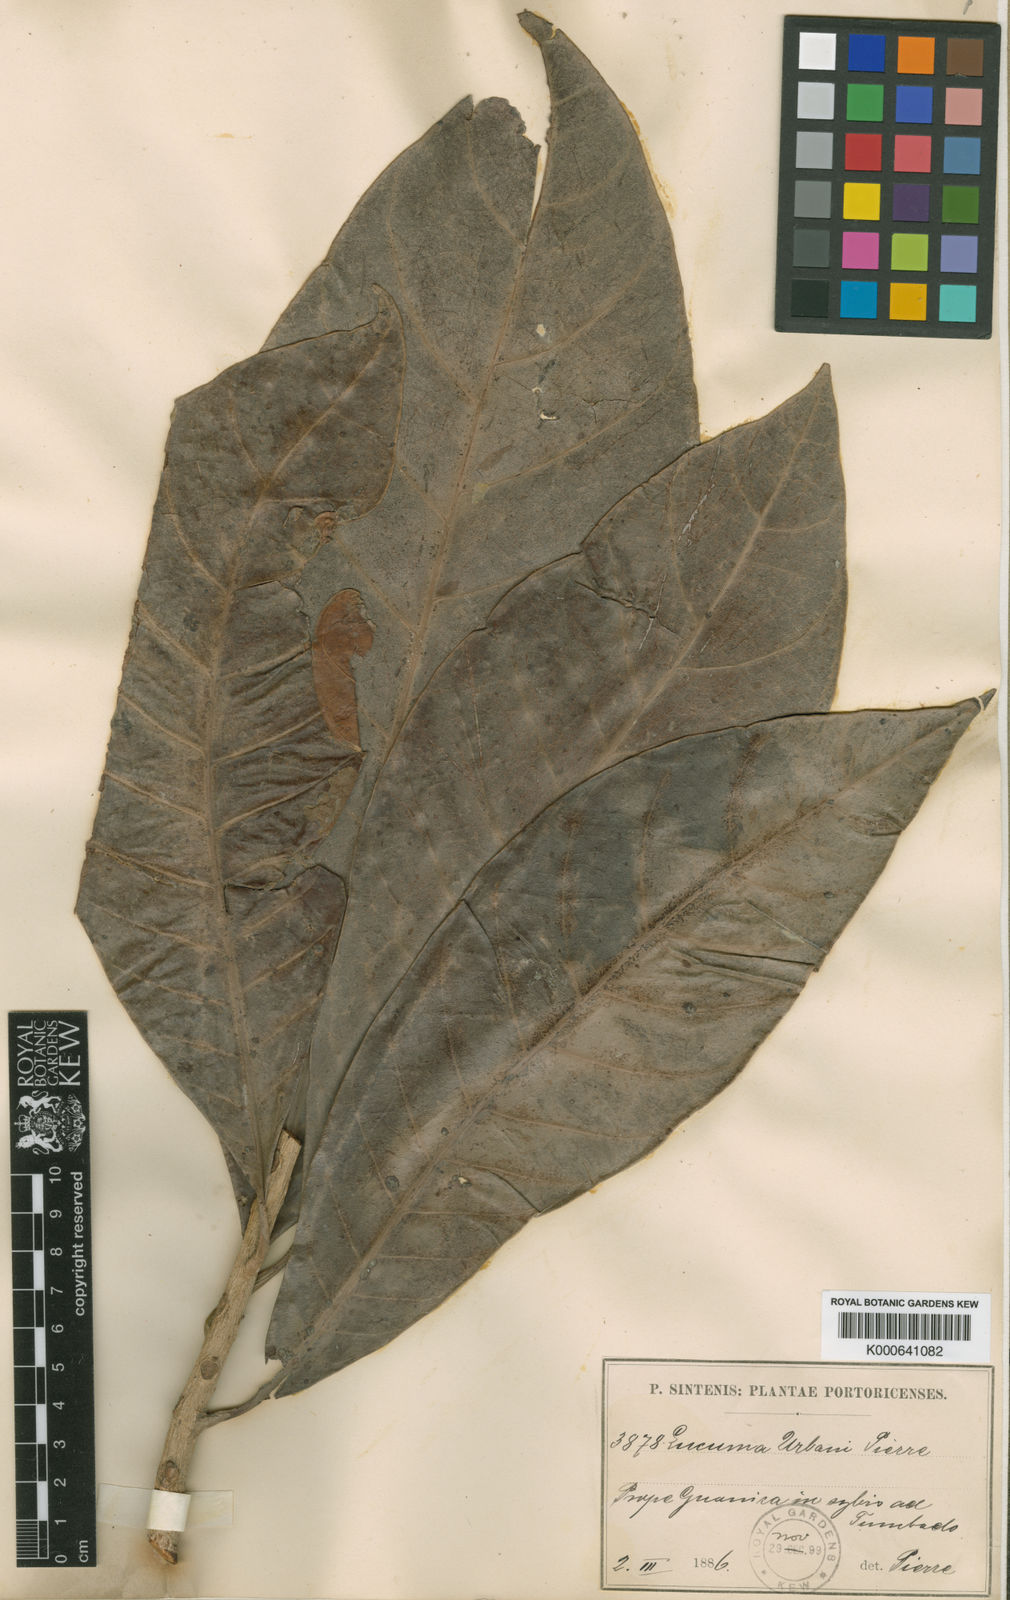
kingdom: Plantae
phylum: Tracheophyta
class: Magnoliopsida
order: Ericales
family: Sapotaceae
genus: Pouteria
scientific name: Pouteria multiflora
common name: Bullytree
